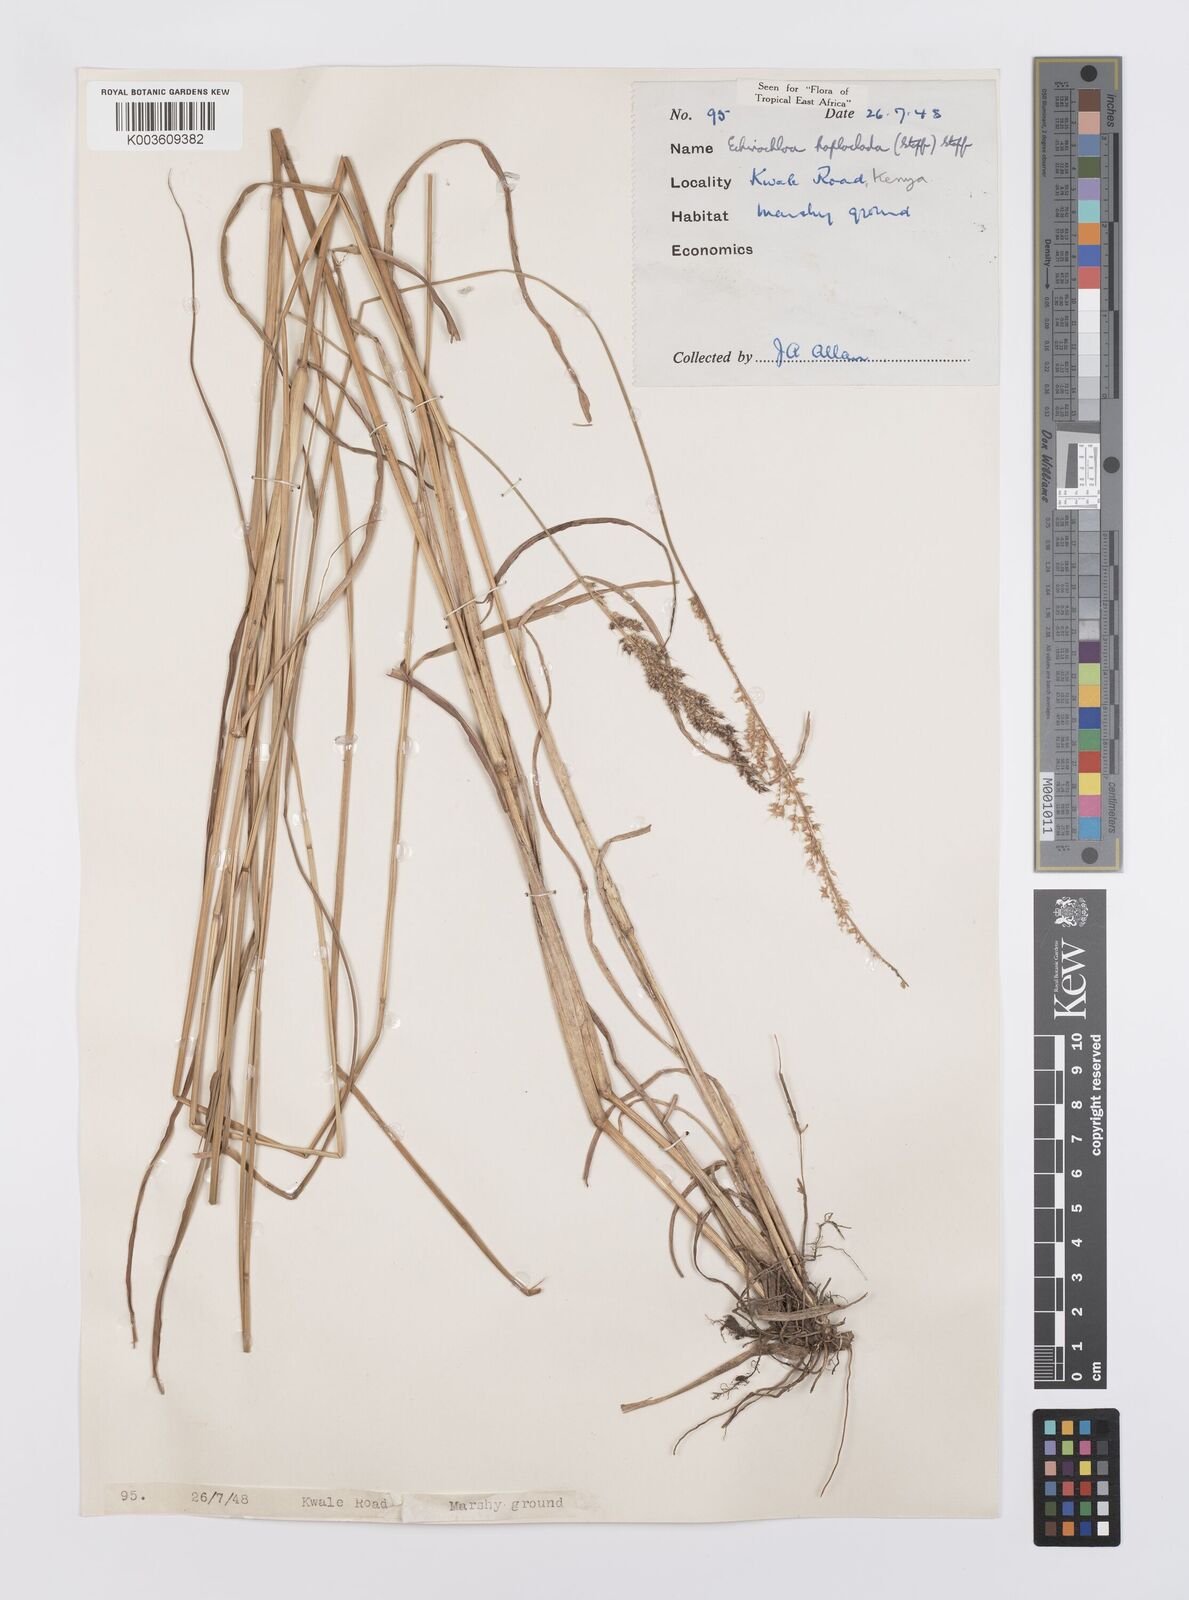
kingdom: Plantae
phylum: Tracheophyta
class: Liliopsida
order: Poales
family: Poaceae
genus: Echinochloa
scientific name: Echinochloa haploclada
